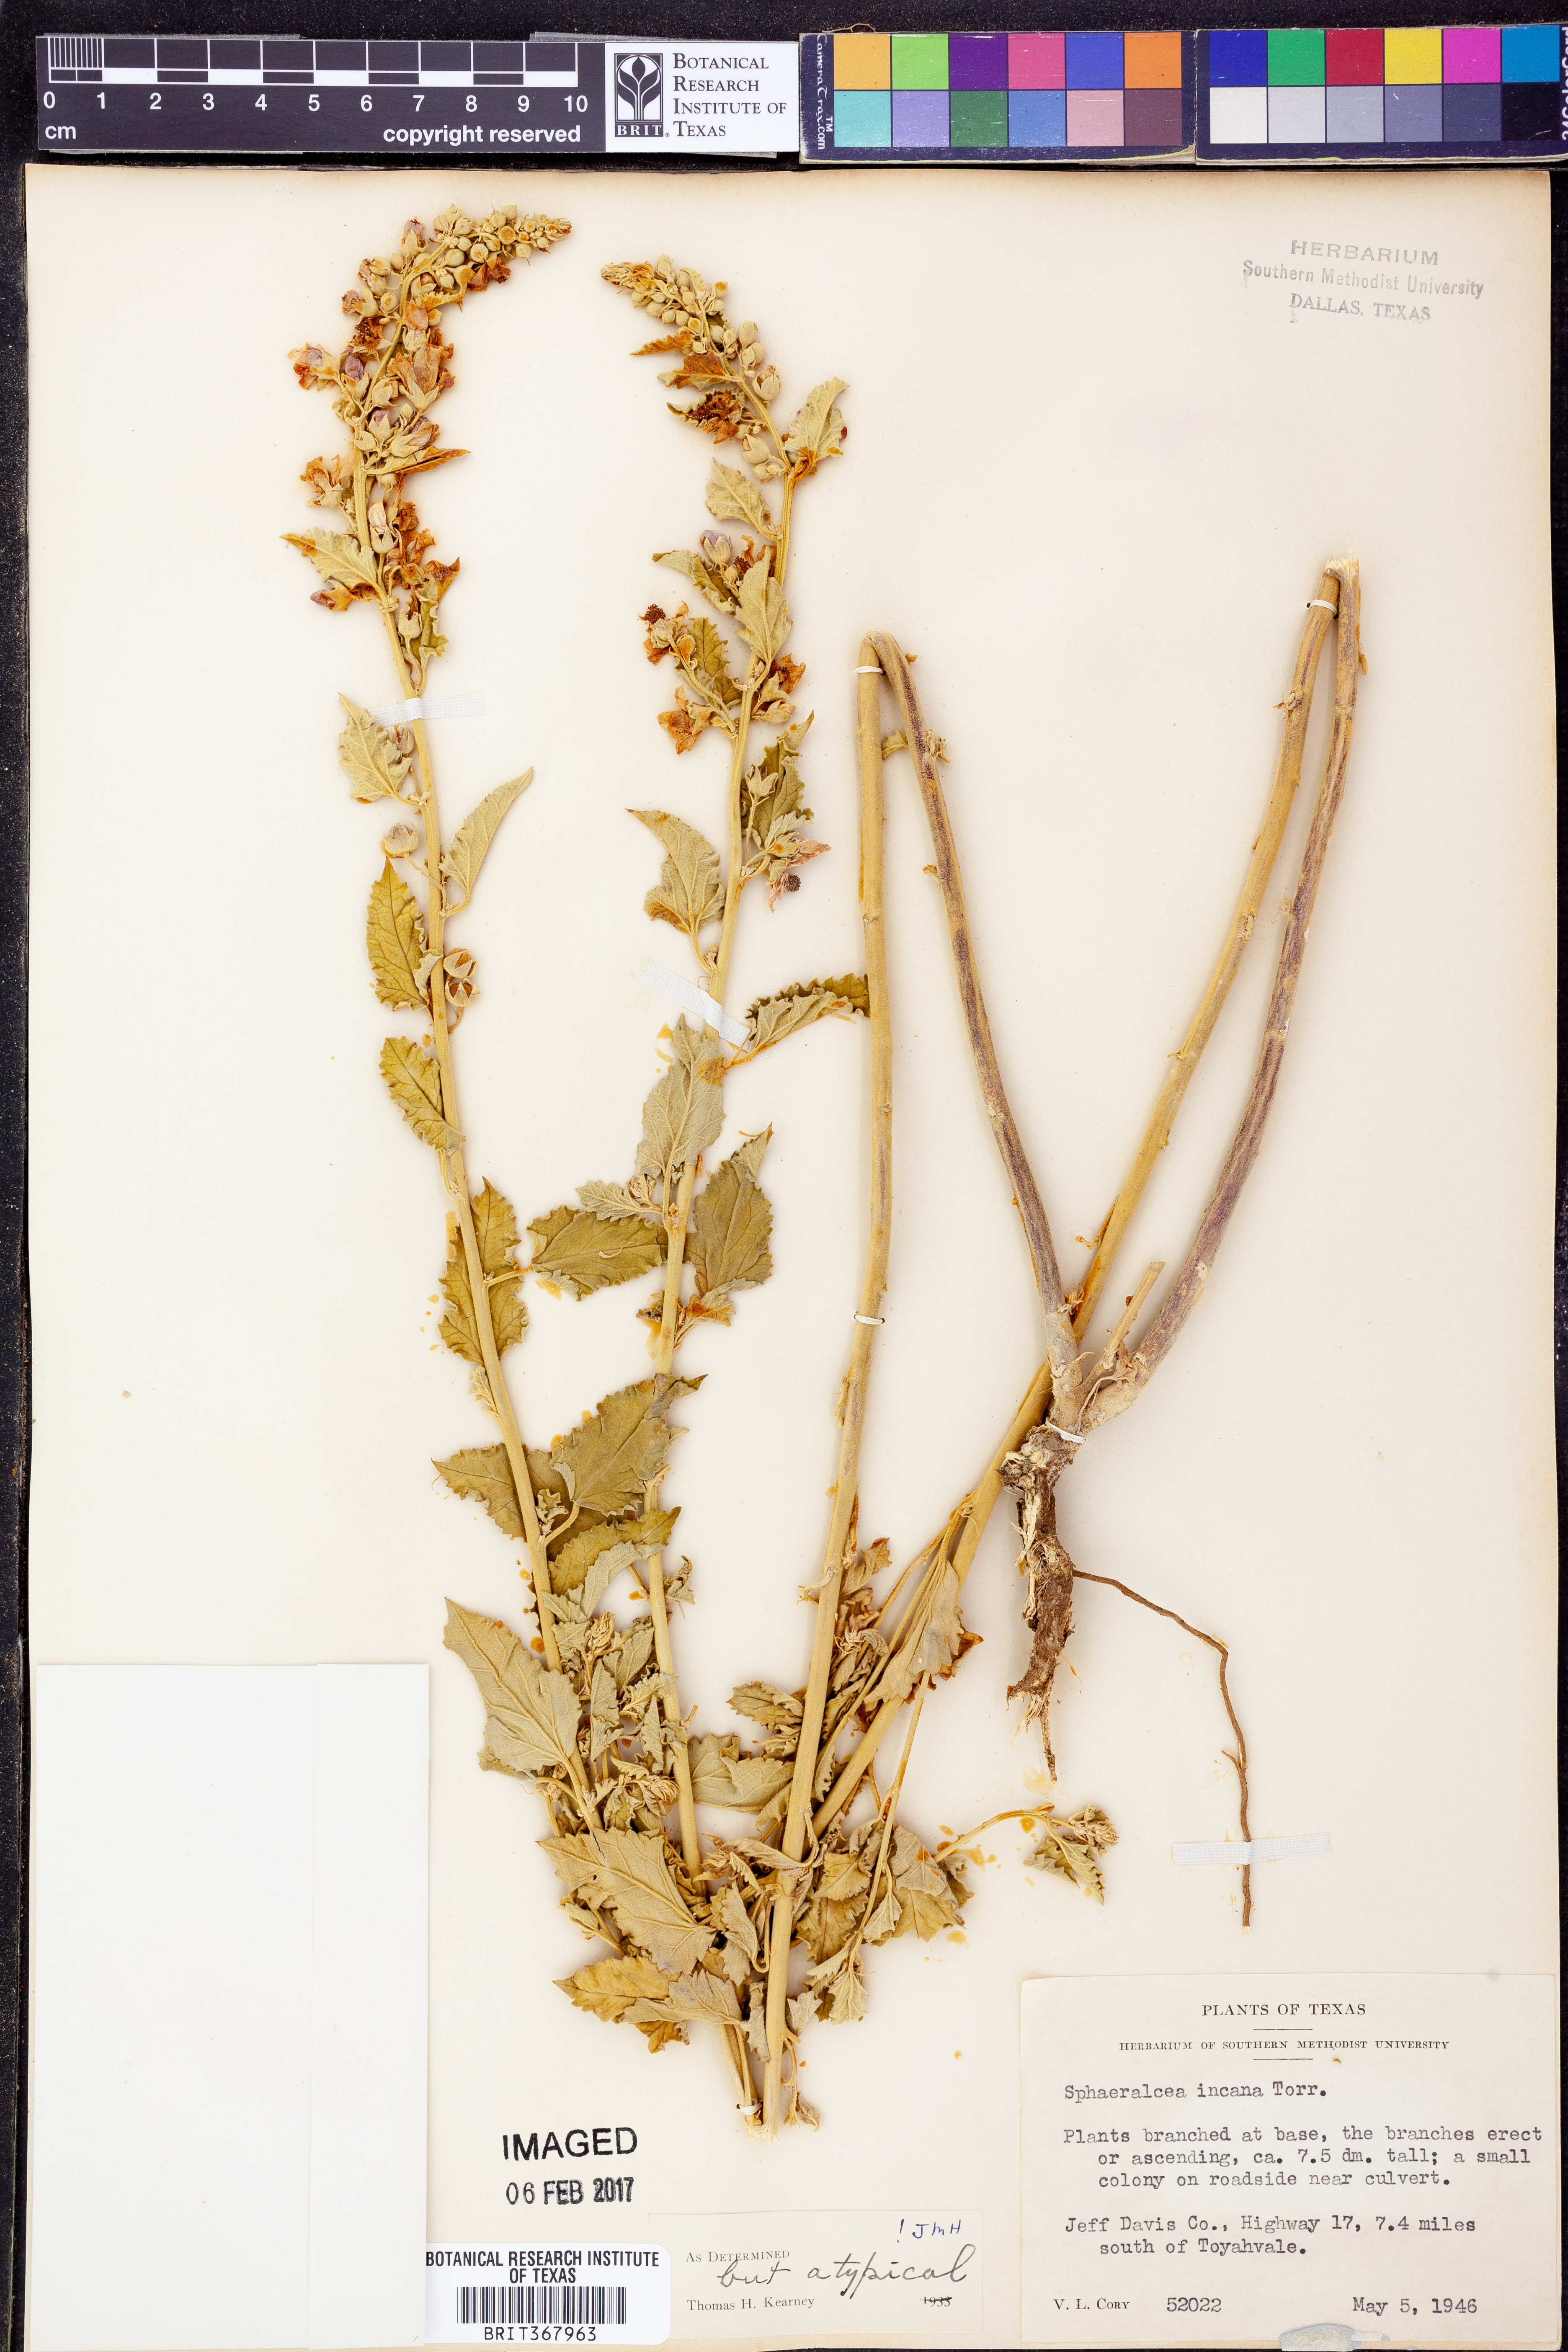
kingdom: Plantae
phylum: Tracheophyta
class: Magnoliopsida
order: Malvales
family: Malvaceae
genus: Sphaeralcea
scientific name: Sphaeralcea incana
